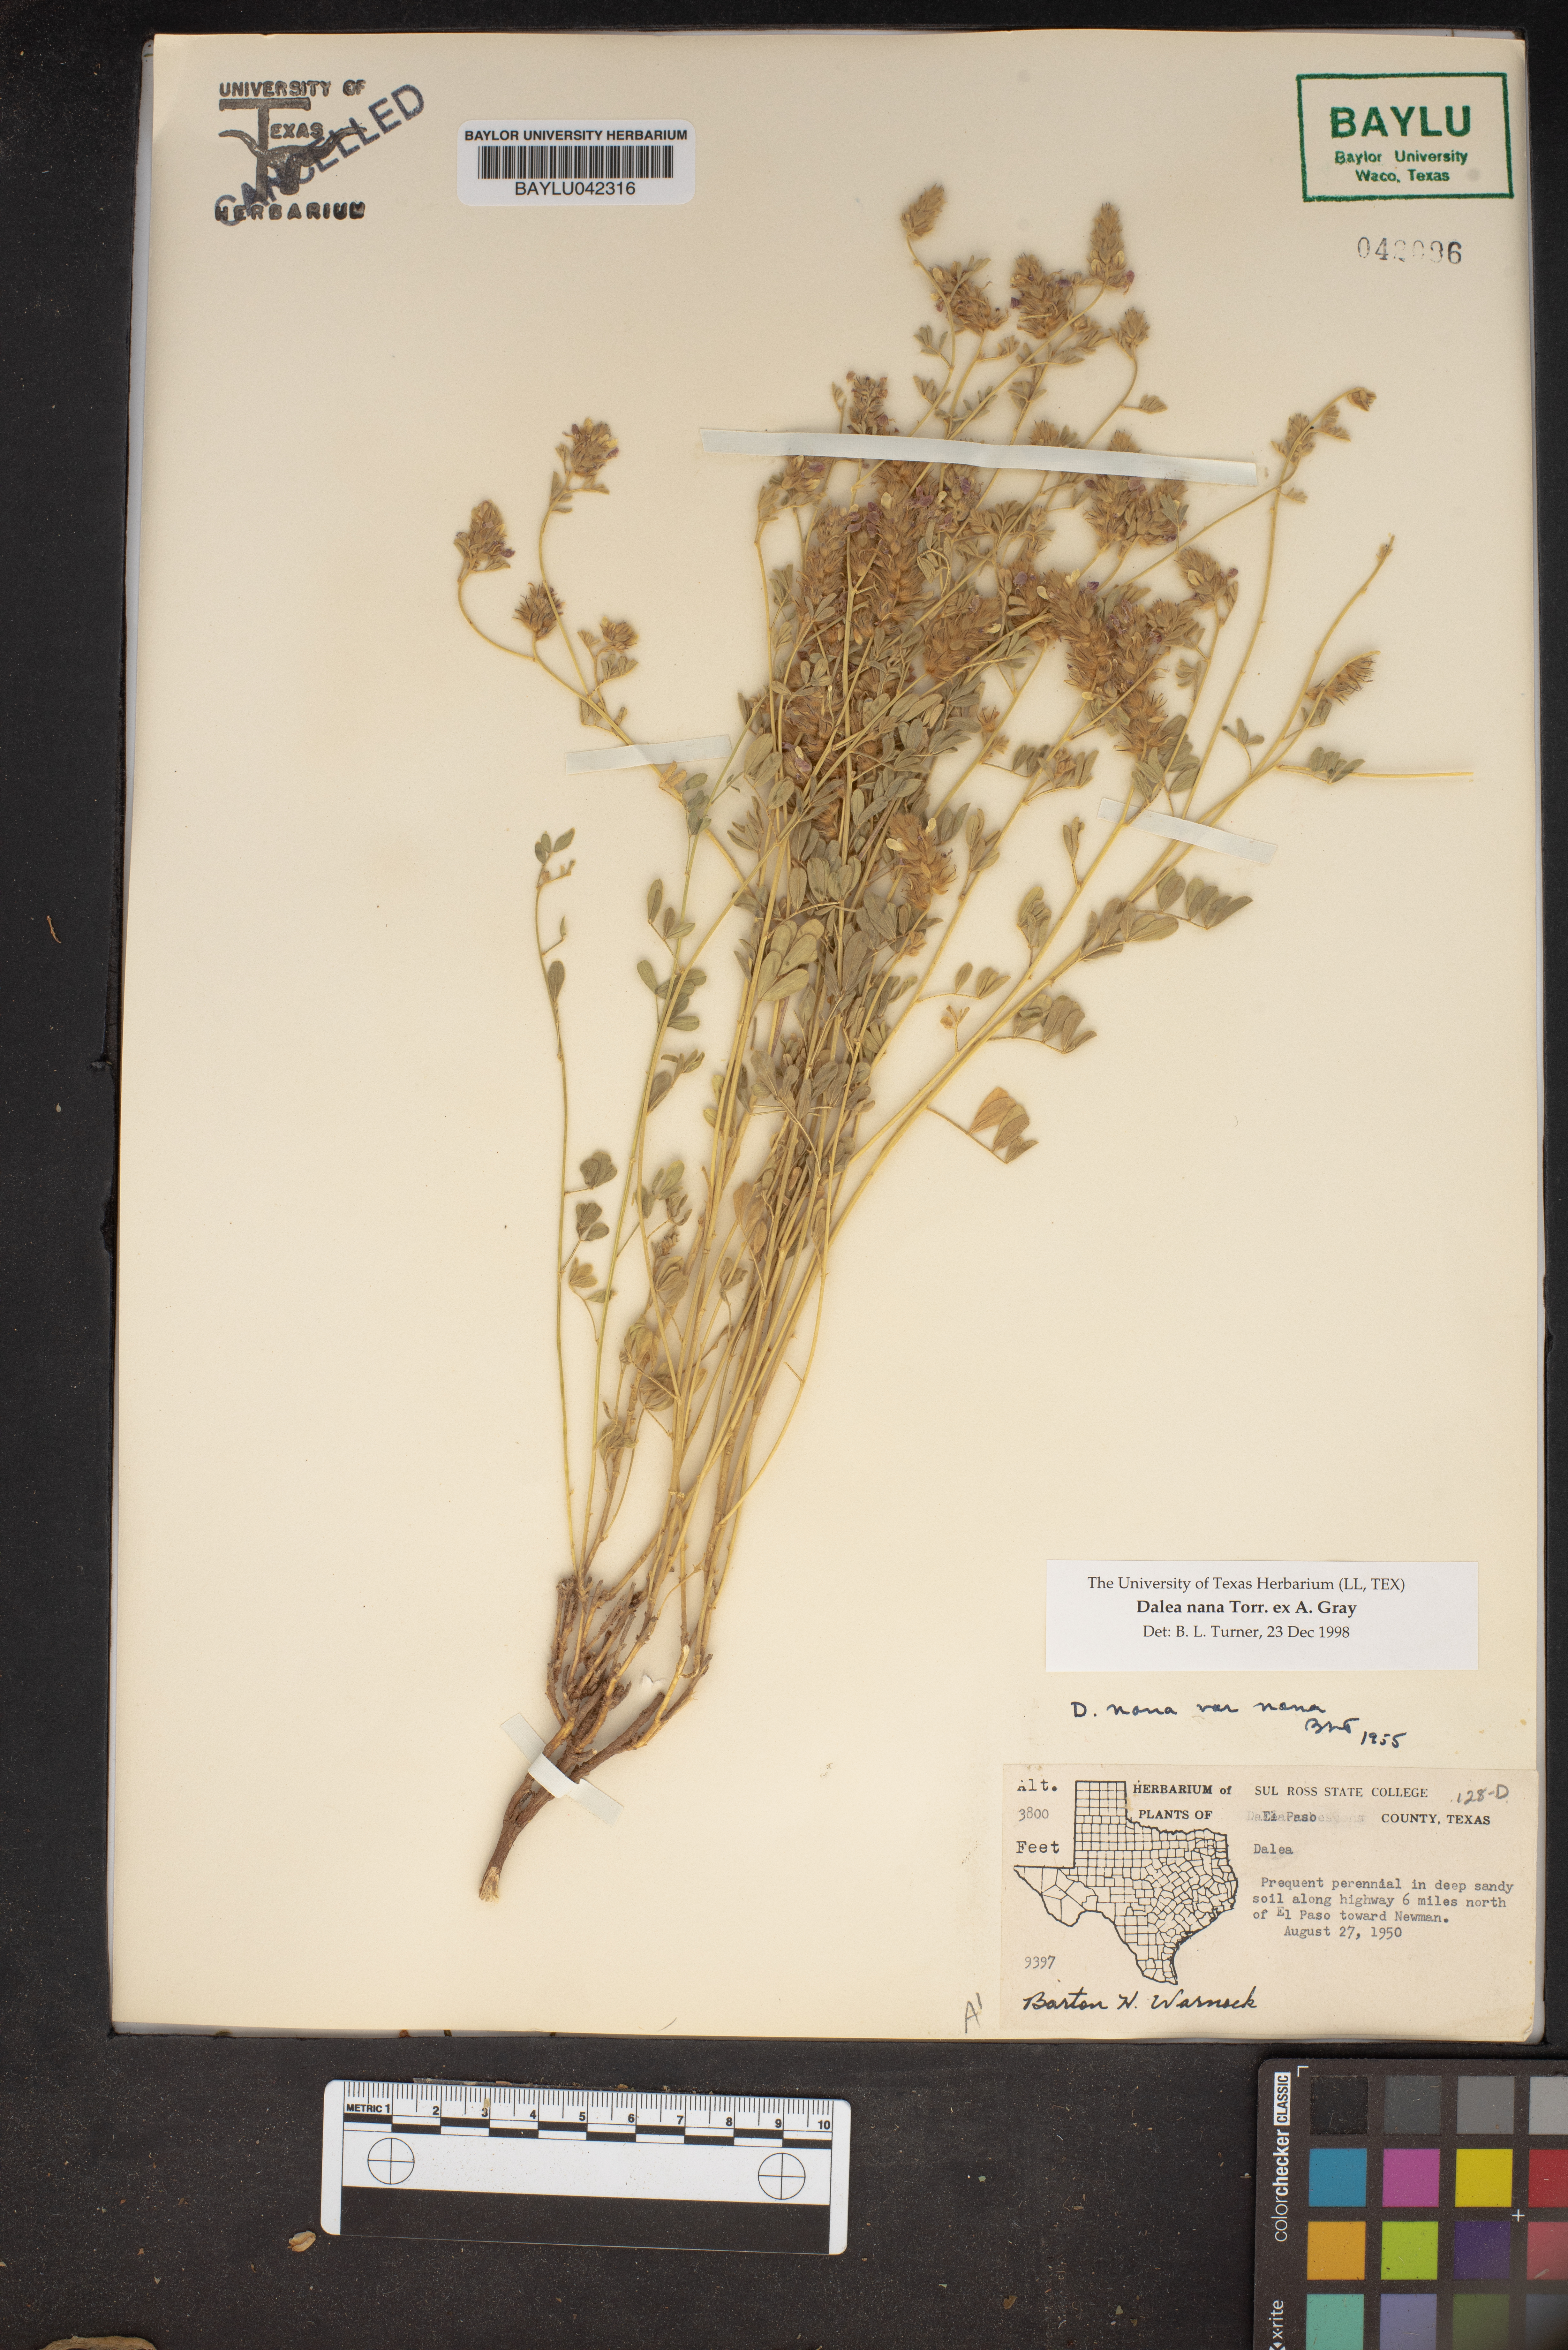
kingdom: Plantae
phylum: Tracheophyta
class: Magnoliopsida
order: Fabales
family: Fabaceae
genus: Dalea
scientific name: Dalea nana
